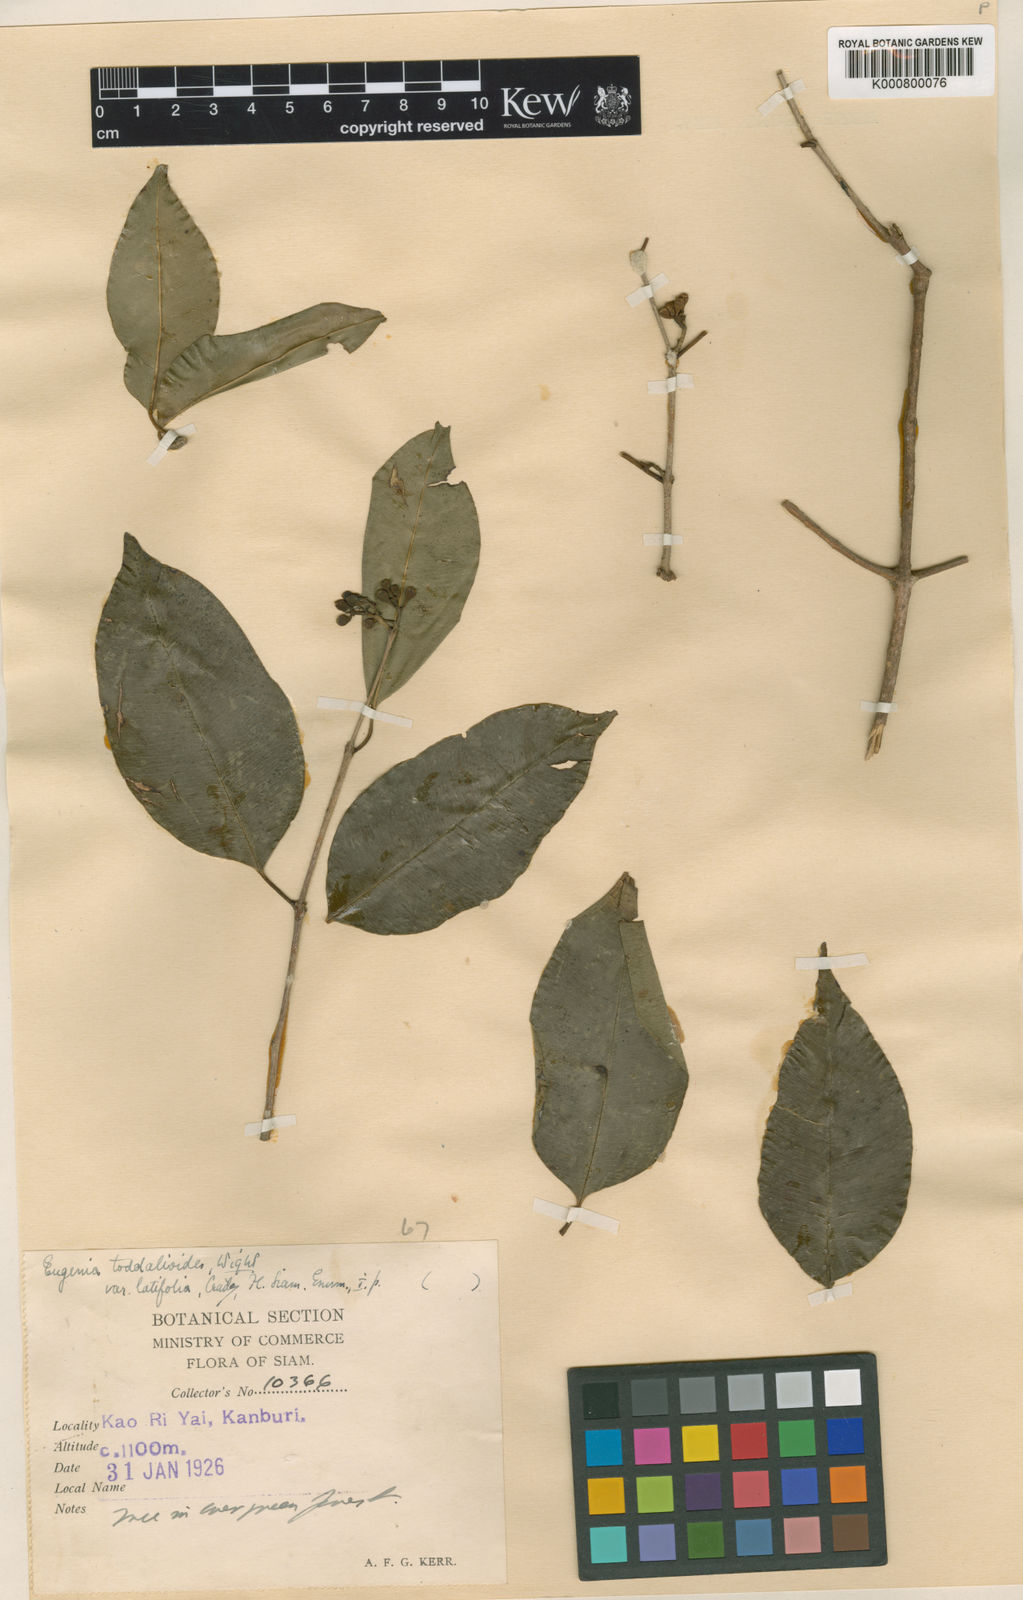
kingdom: Plantae
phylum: Tracheophyta
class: Magnoliopsida
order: Myrtales
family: Myrtaceae
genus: Syzygium
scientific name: Syzygium toddalioides
